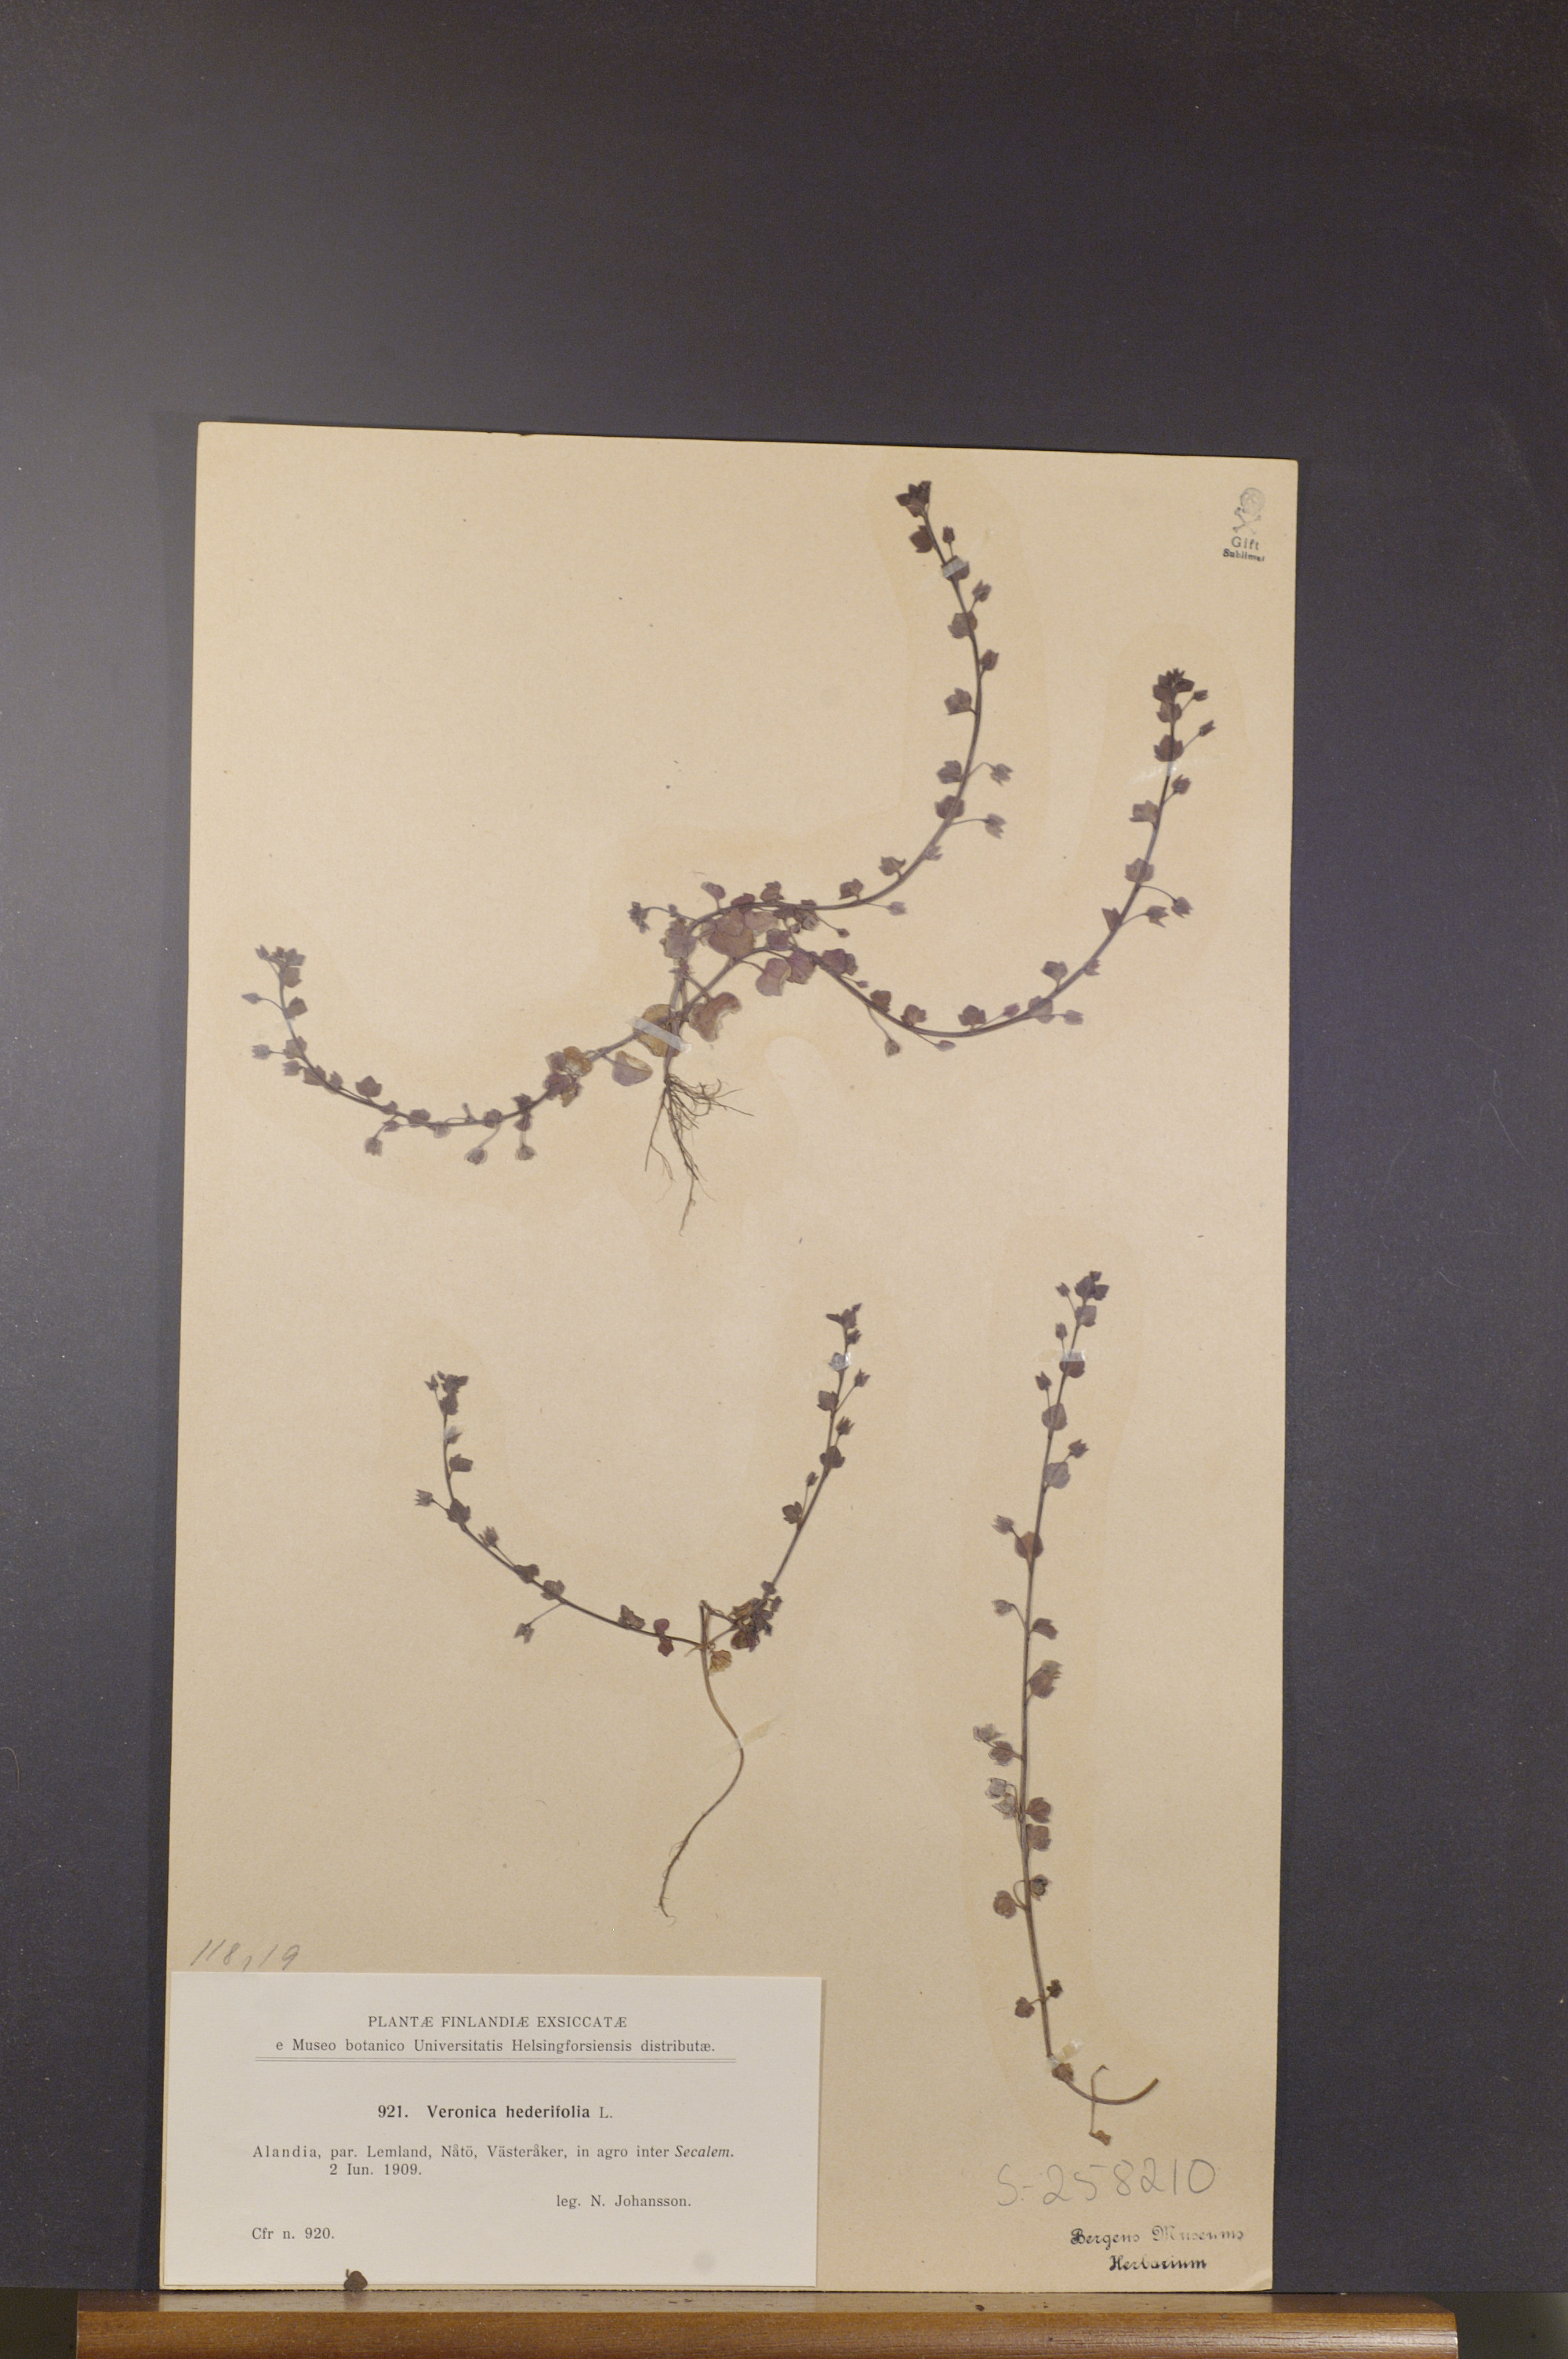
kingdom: Plantae
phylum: Tracheophyta
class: Magnoliopsida
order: Lamiales
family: Plantaginaceae
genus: Veronica
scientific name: Veronica hederifolia
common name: Ivy-leaved speedwell
